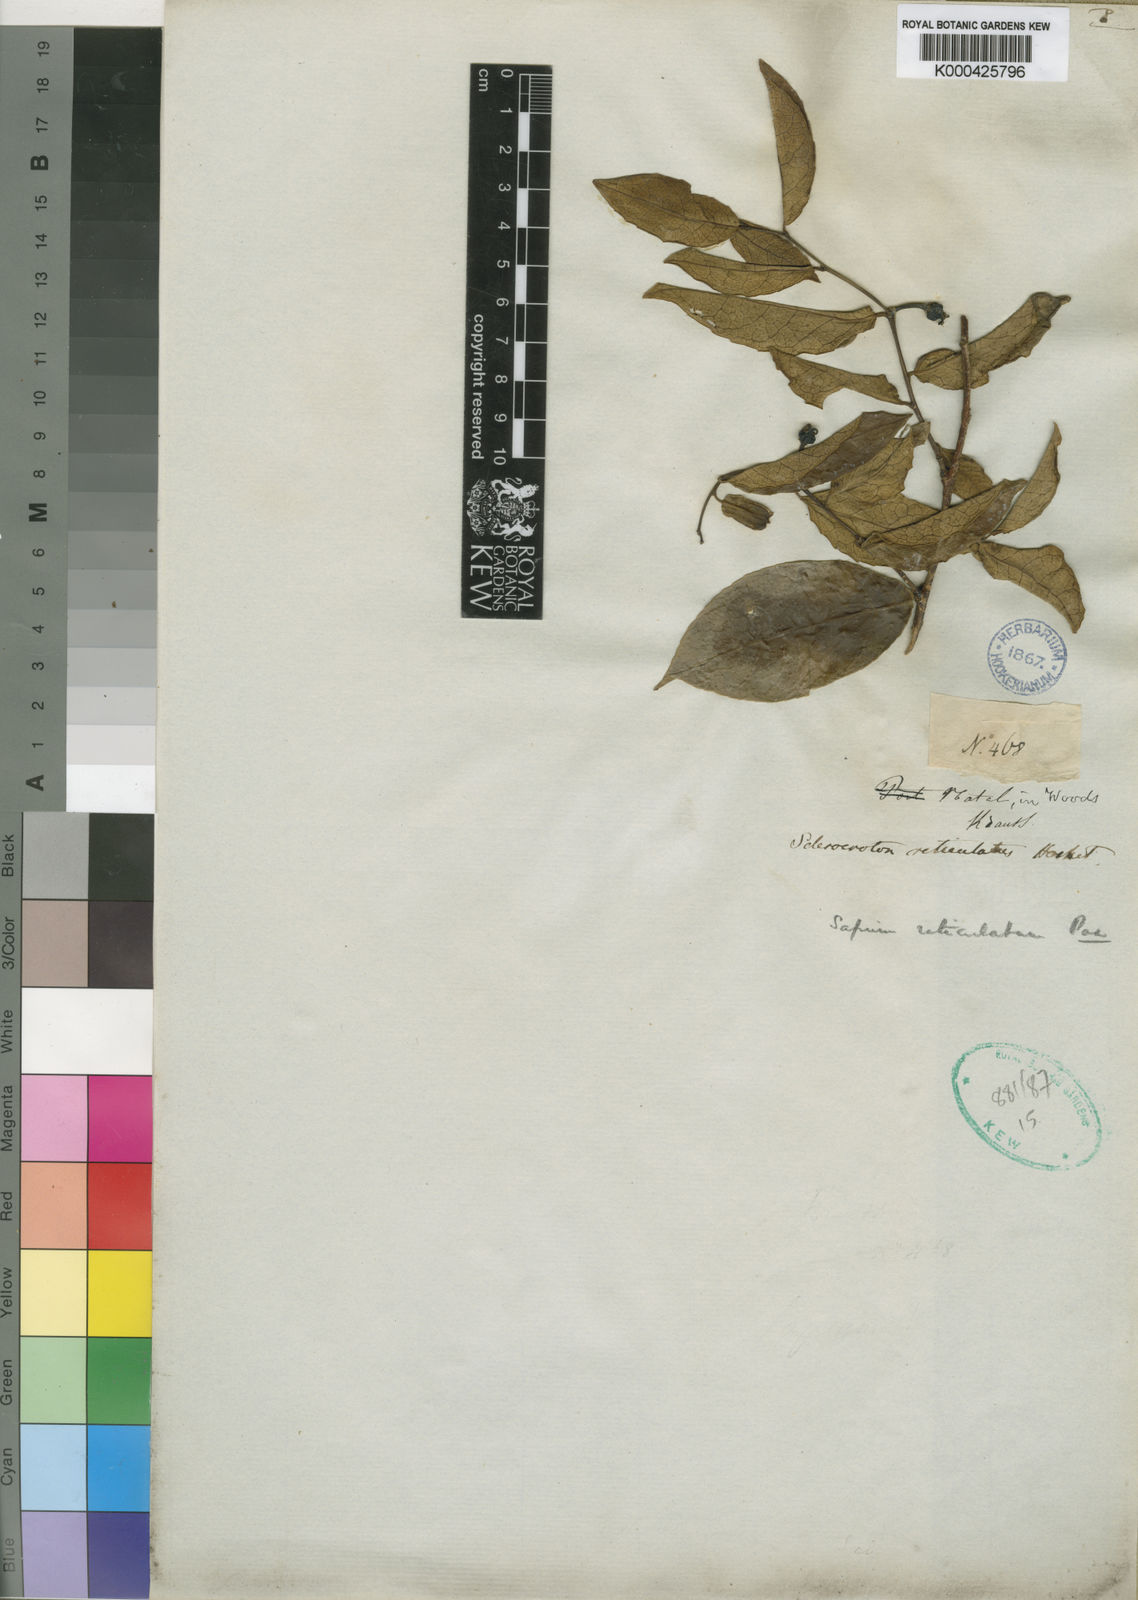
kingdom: Plantae
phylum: Tracheophyta
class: Magnoliopsida
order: Malpighiales
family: Euphorbiaceae
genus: Sapium
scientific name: Sapium
